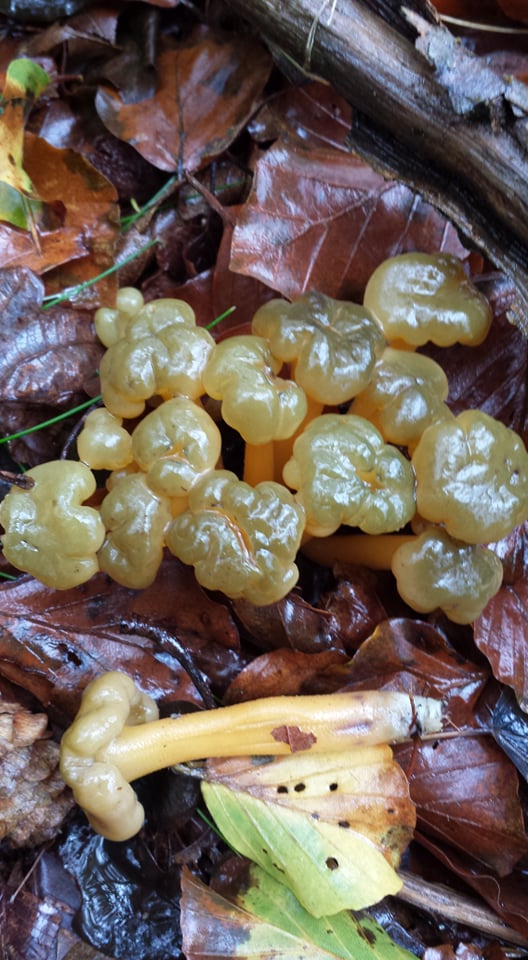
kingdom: Fungi
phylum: Ascomycota
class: Leotiomycetes
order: Leotiales
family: Leotiaceae
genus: Leotia
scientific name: Leotia lubrica
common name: ravsvamp
